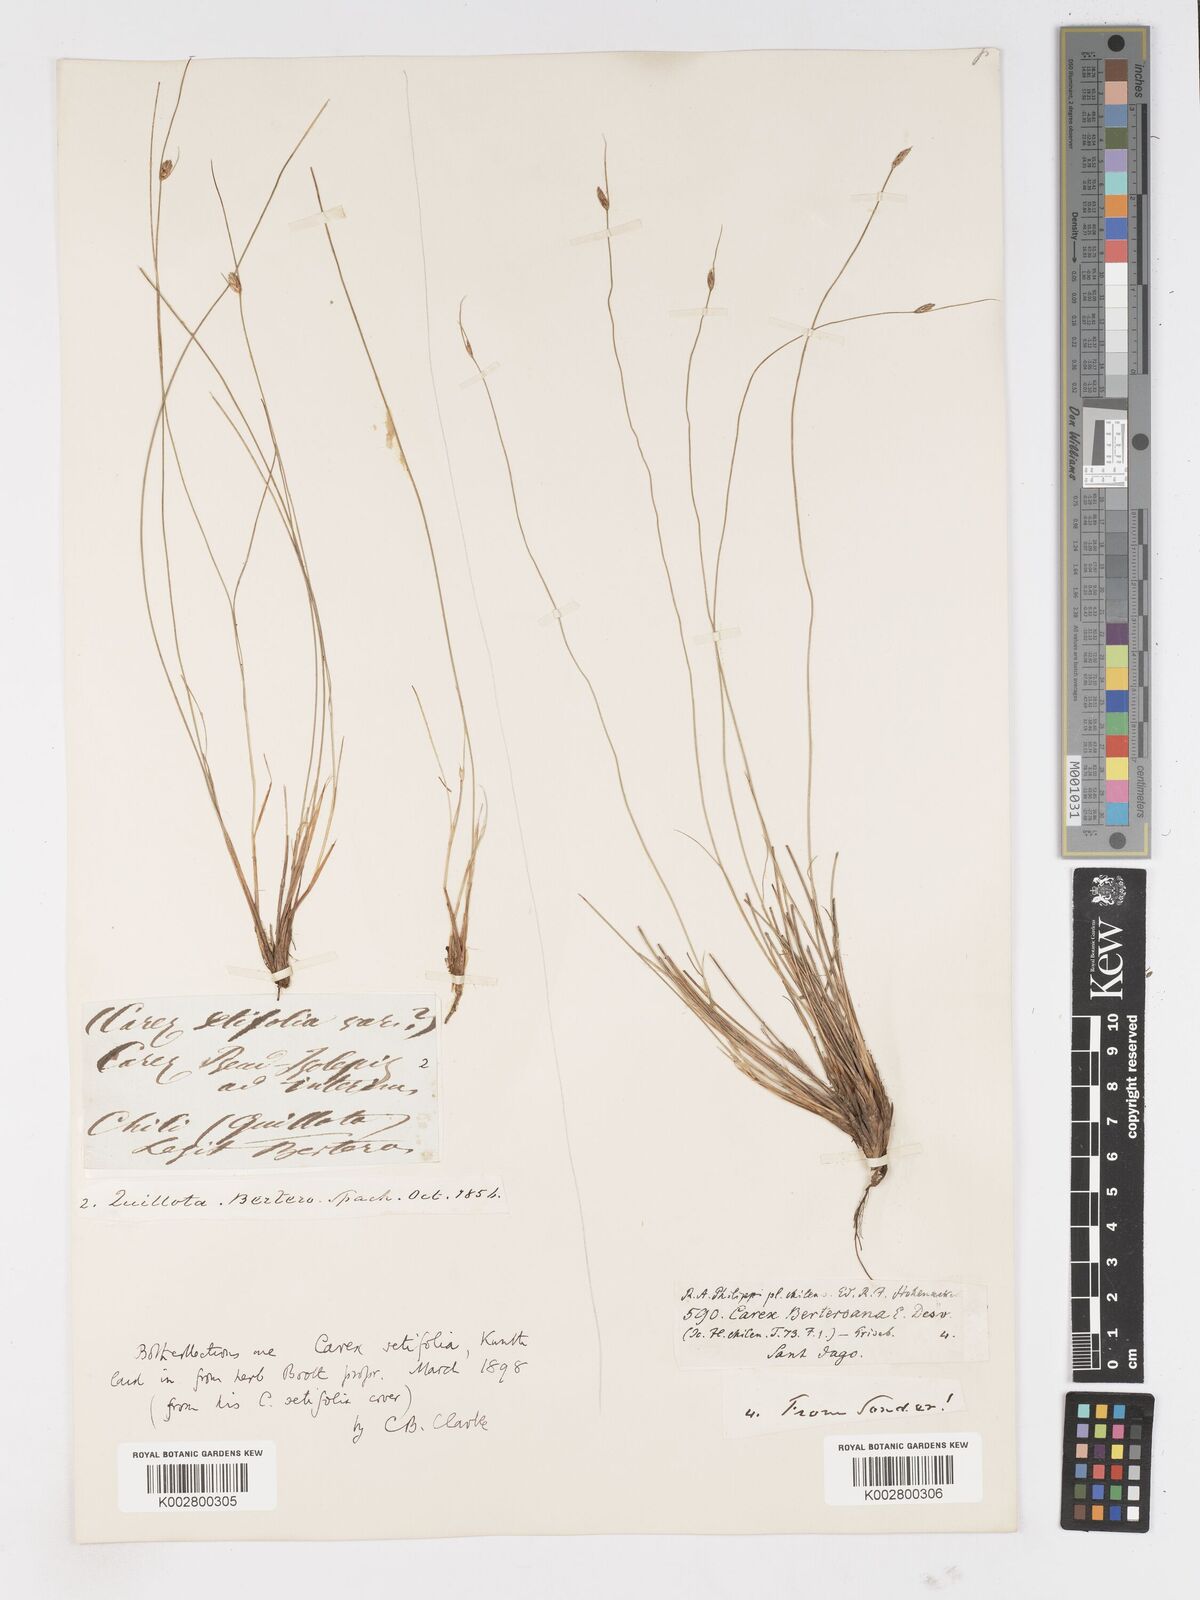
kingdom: Plantae
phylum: Tracheophyta
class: Liliopsida
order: Poales
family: Cyperaceae
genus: Carex
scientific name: Carex andina
